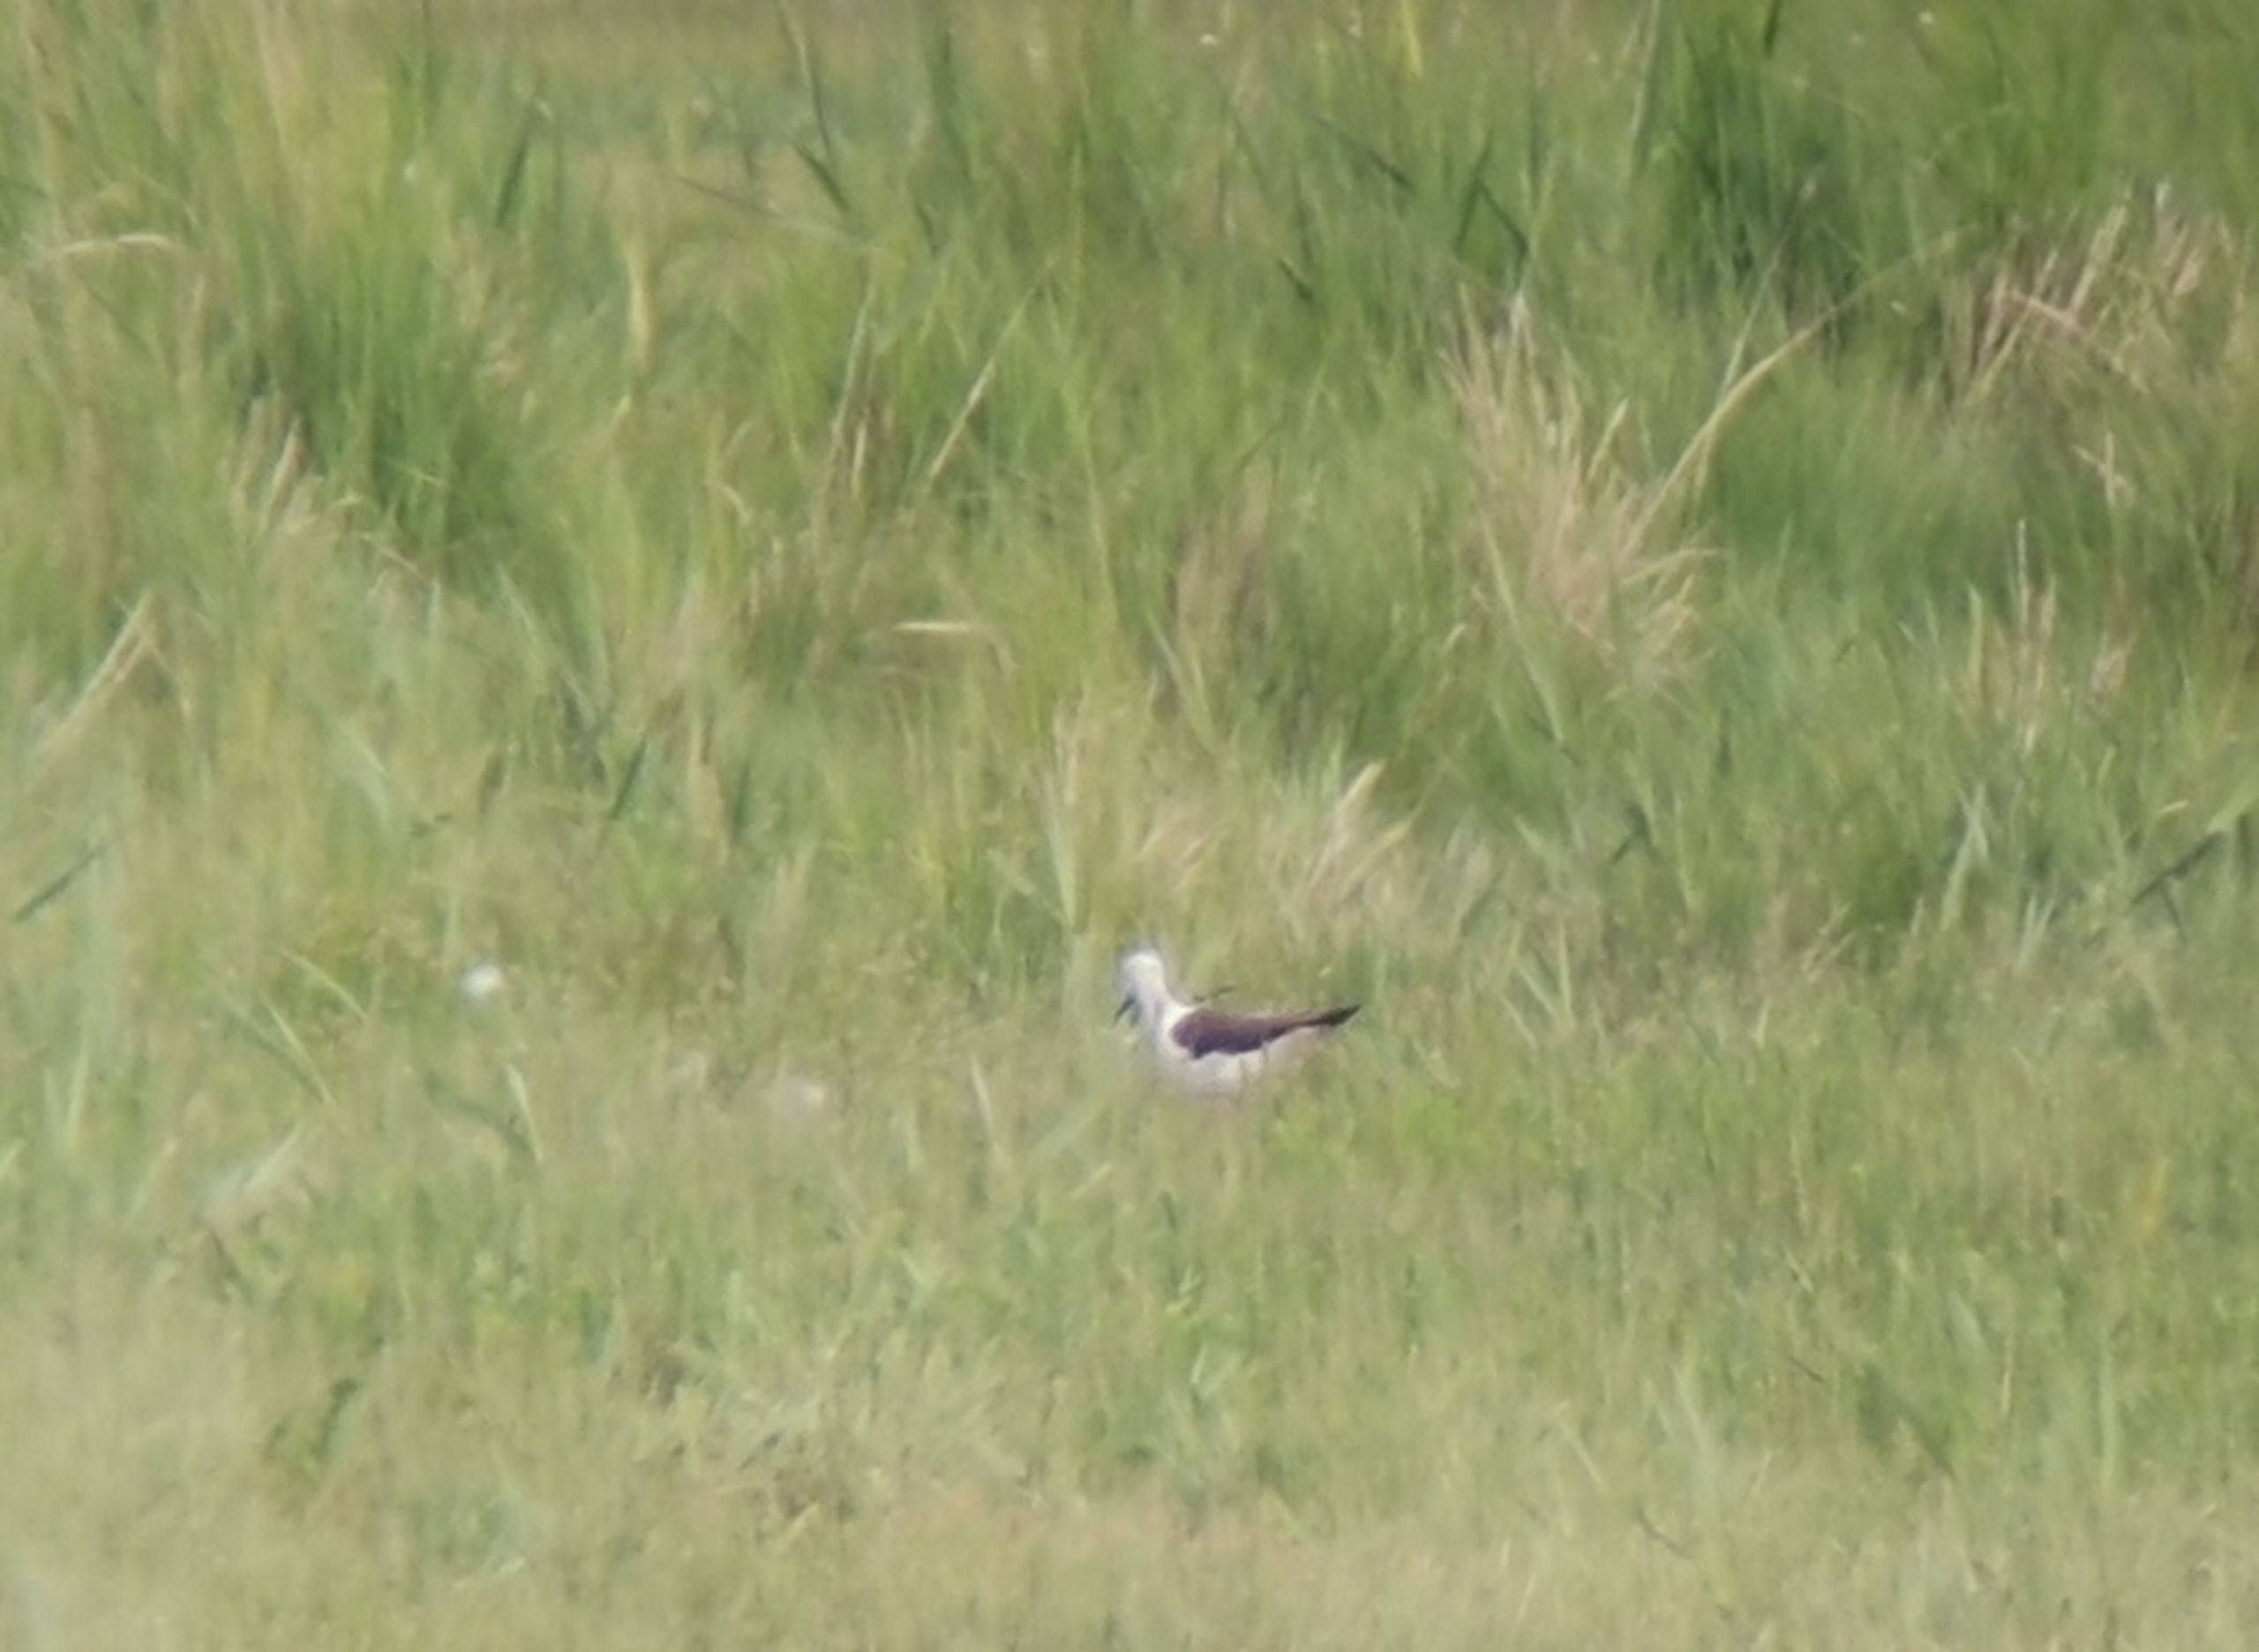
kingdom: Animalia
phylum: Chordata
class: Aves
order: Charadriiformes
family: Recurvirostridae
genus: Himantopus
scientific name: Himantopus himantopus
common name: Stylteløber
